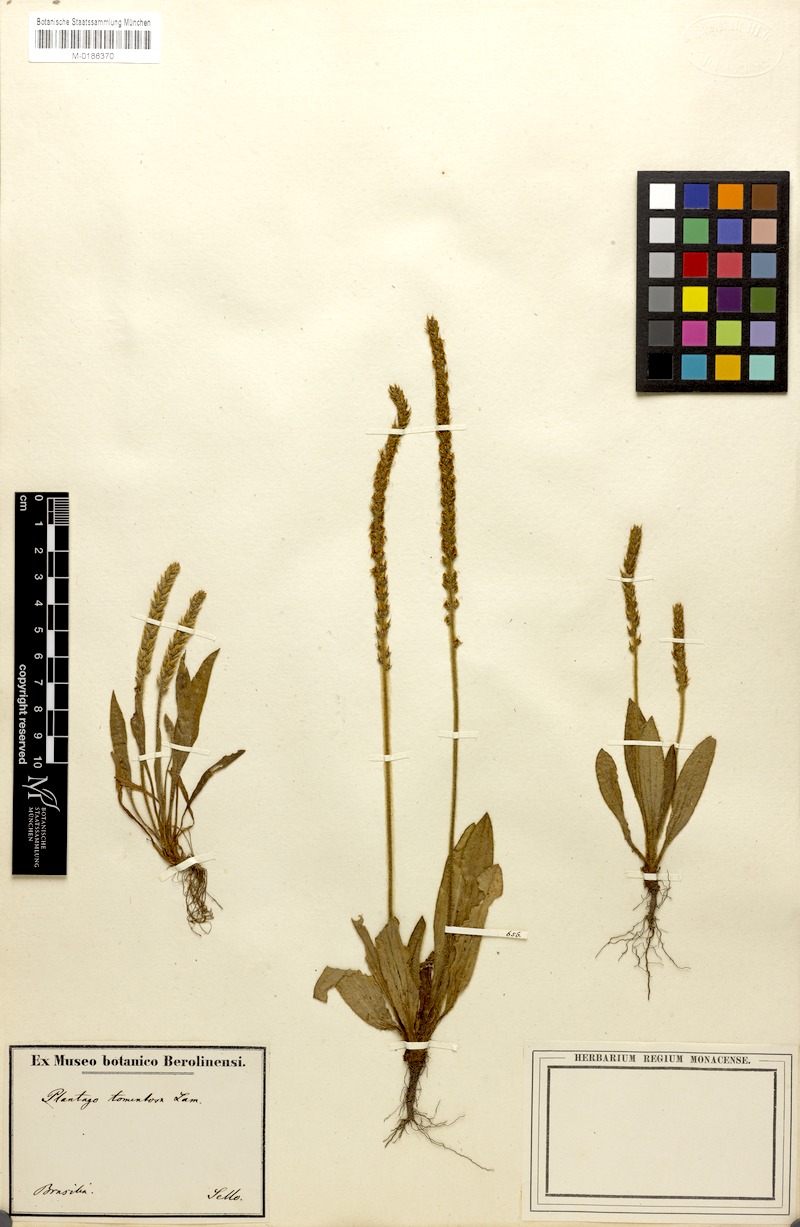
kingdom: Plantae
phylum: Tracheophyta
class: Magnoliopsida
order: Lamiales
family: Plantaginaceae
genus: Plantago
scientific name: Plantago tomentosa
